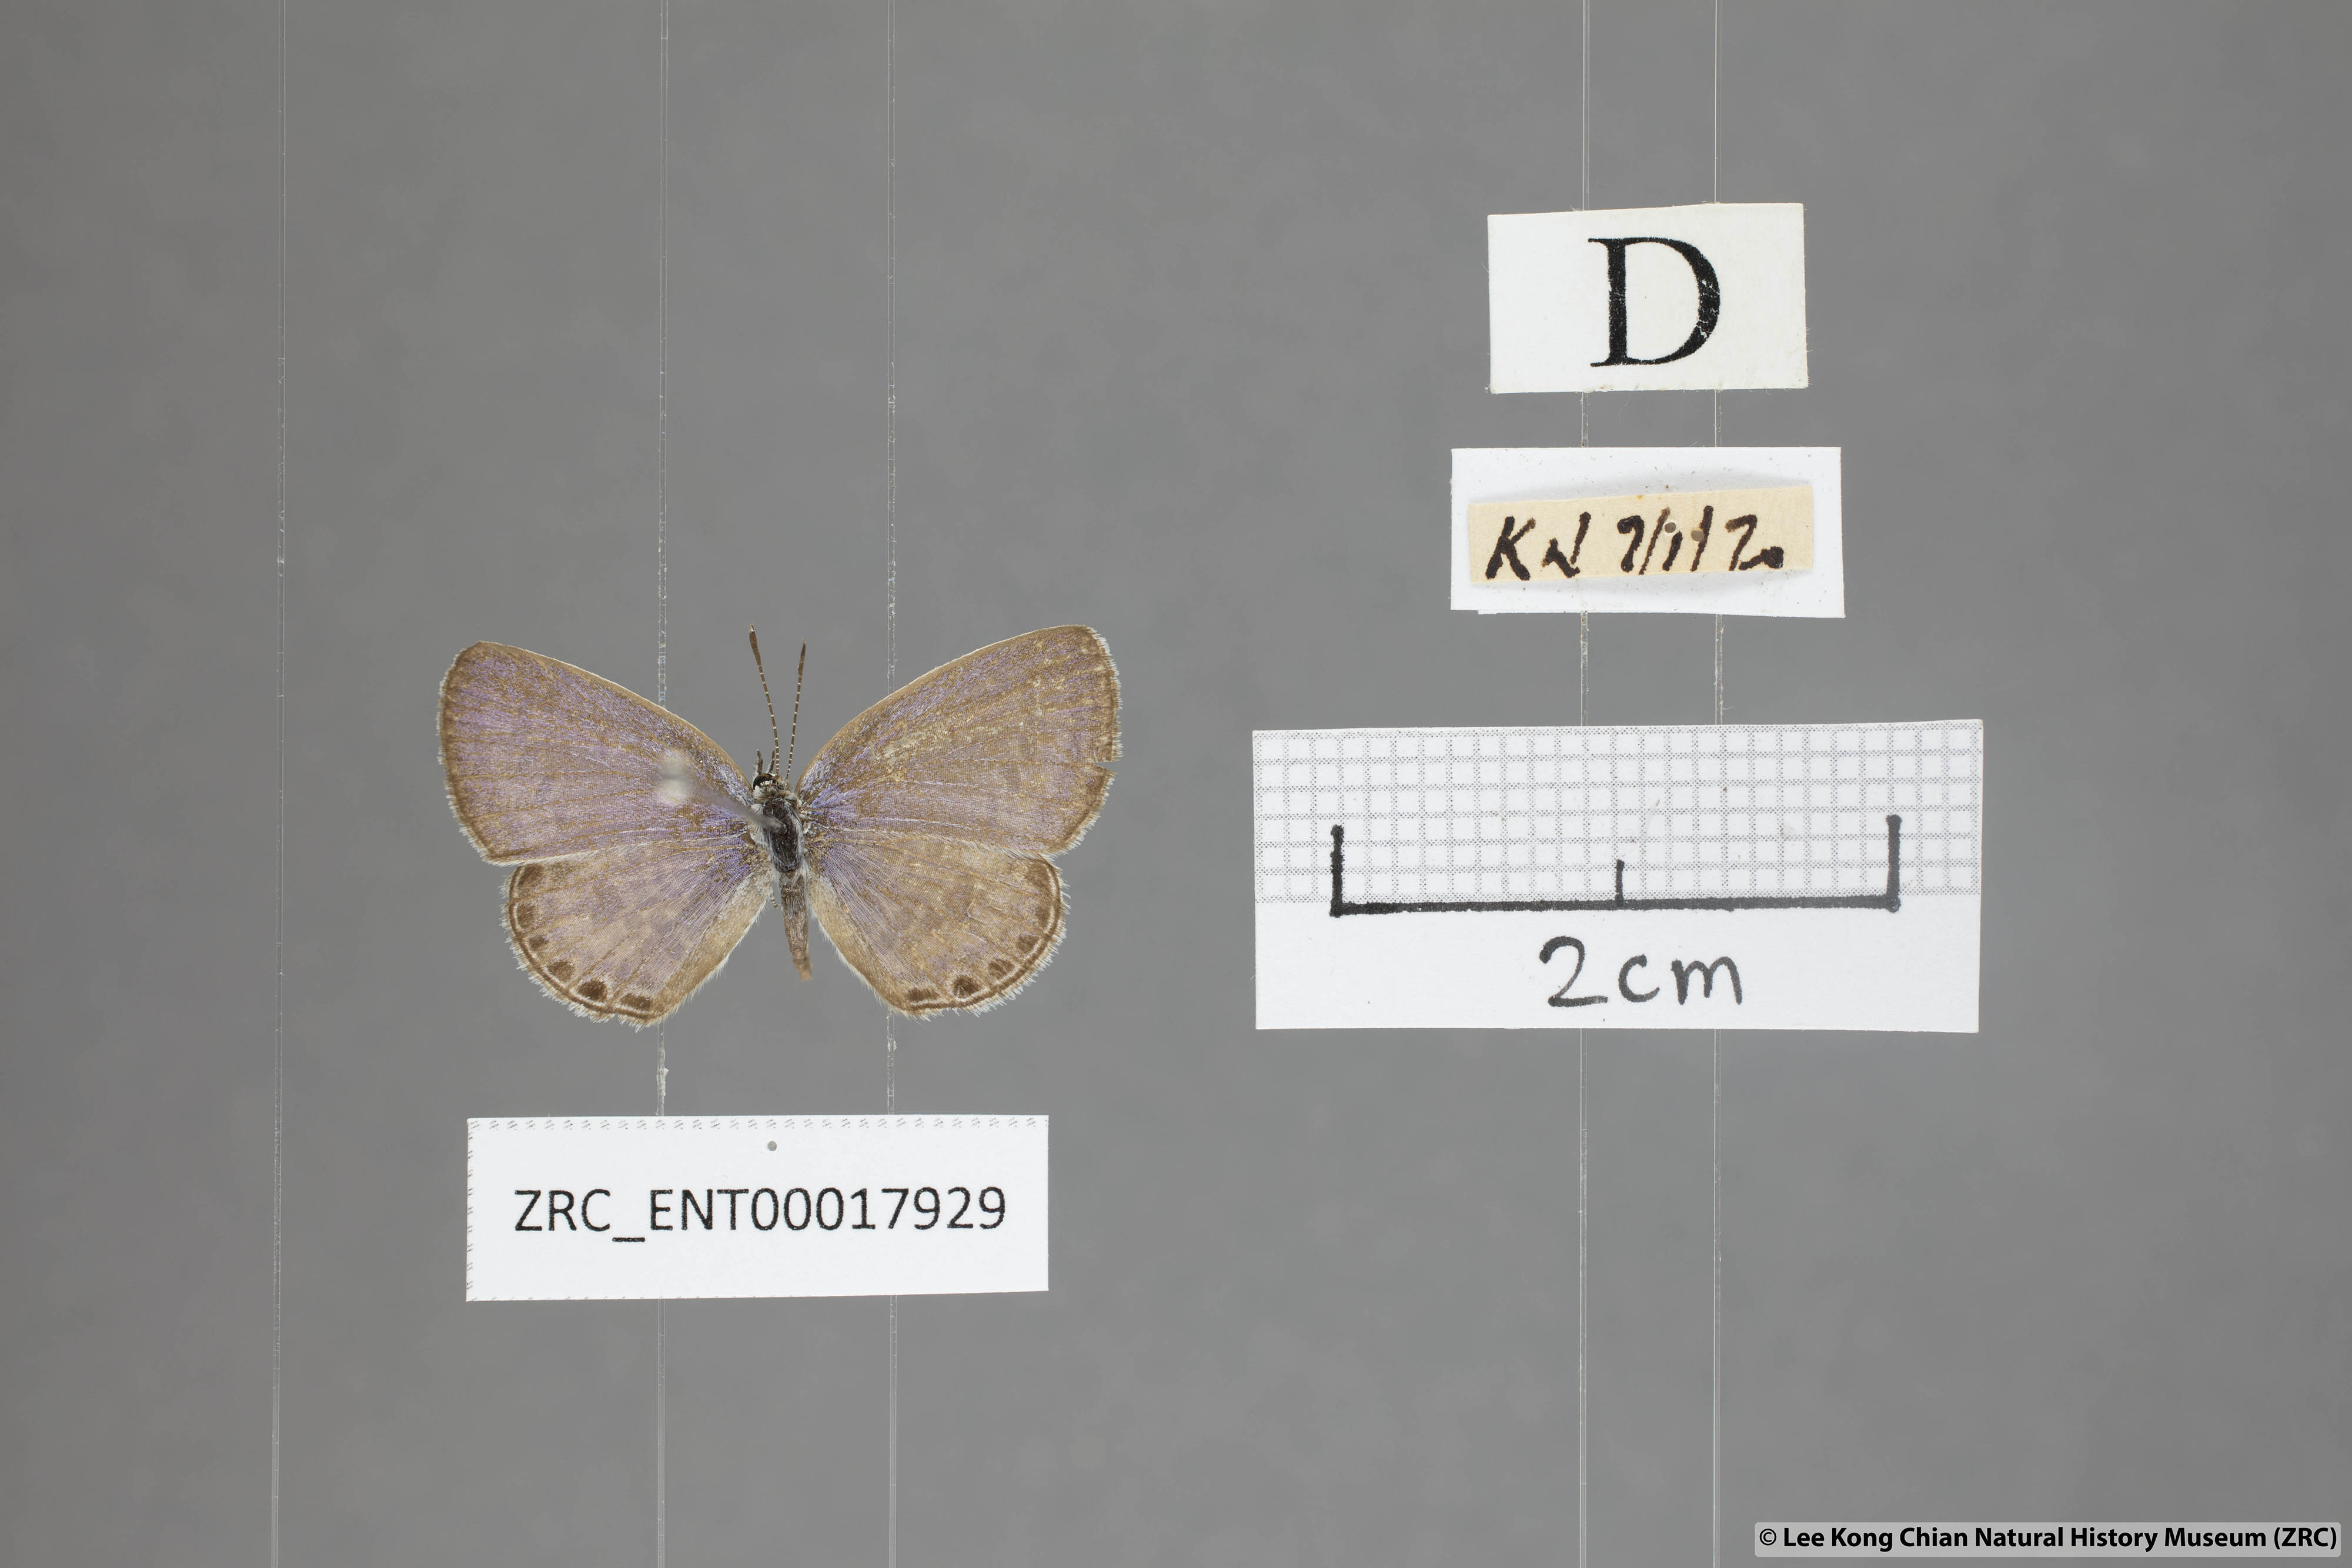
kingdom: Animalia
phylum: Arthropoda
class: Insecta
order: Lepidoptera
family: Lycaenidae
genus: Chilades
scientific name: Chilades laius
